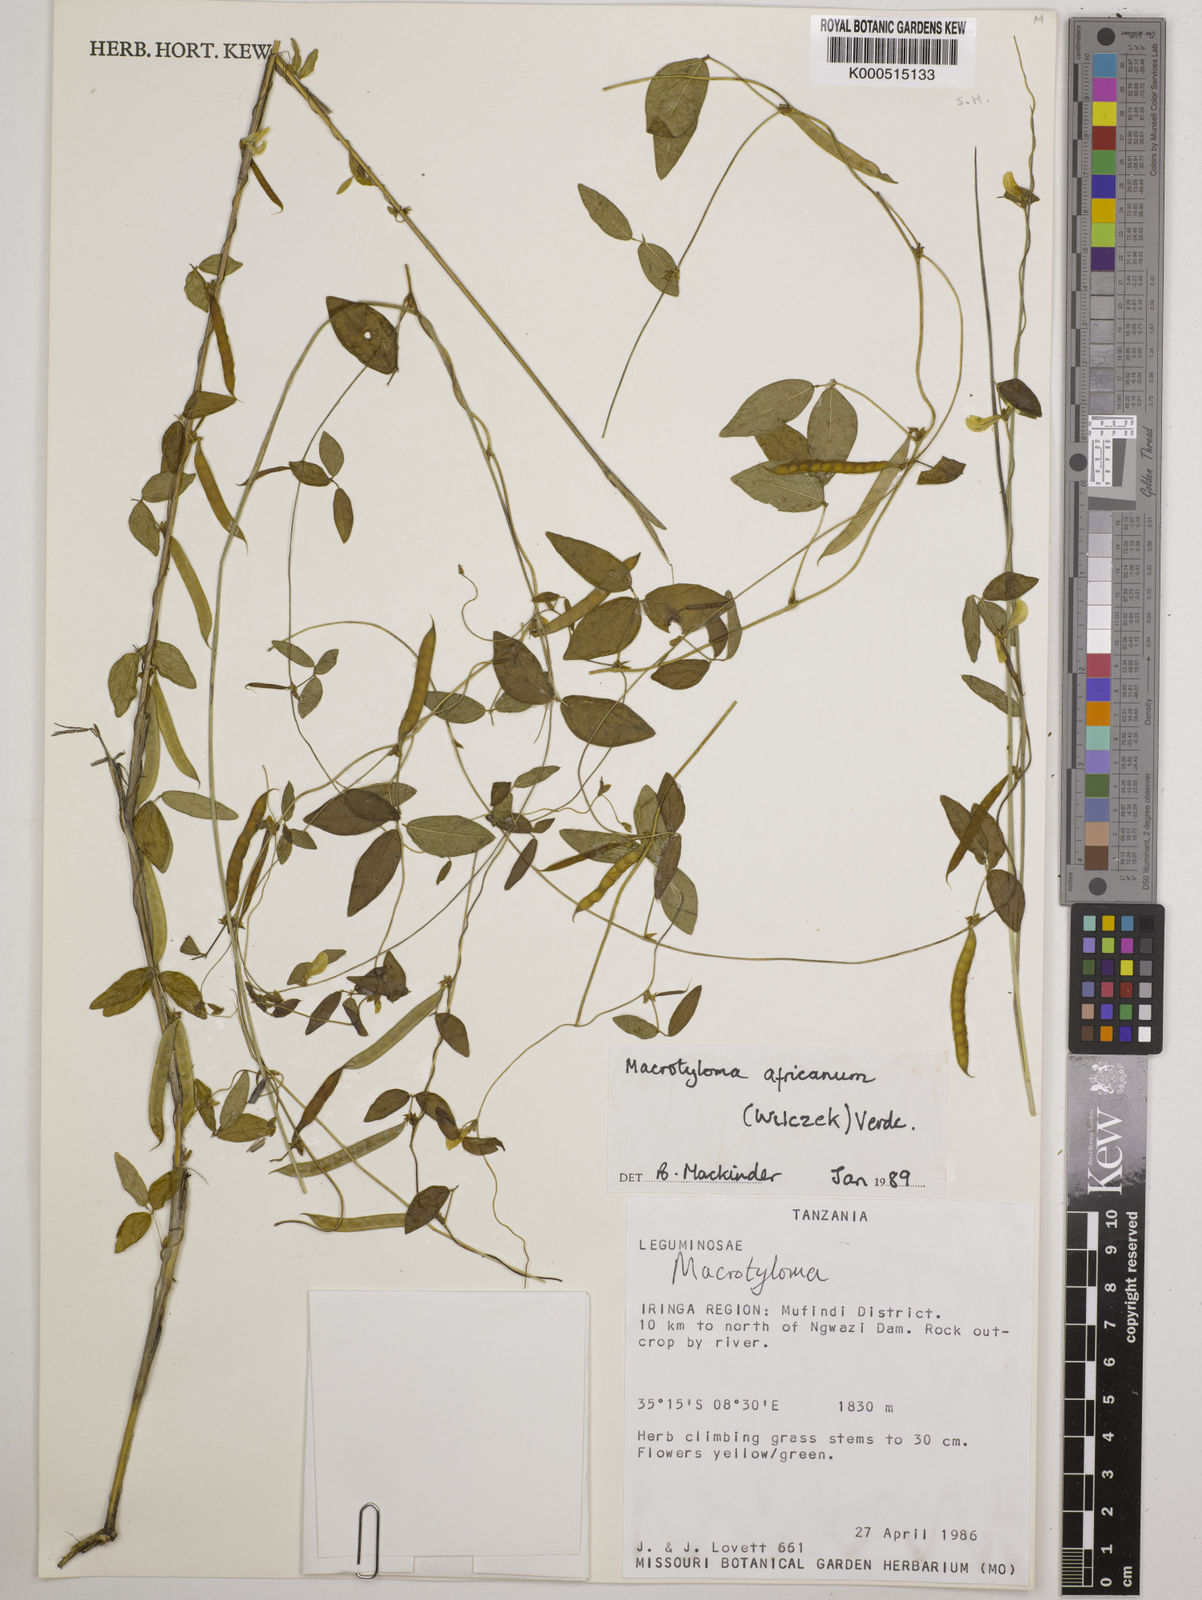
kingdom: Plantae
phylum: Tracheophyta
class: Magnoliopsida
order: Fabales
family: Fabaceae
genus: Macrotyloma
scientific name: Macrotyloma africanum
